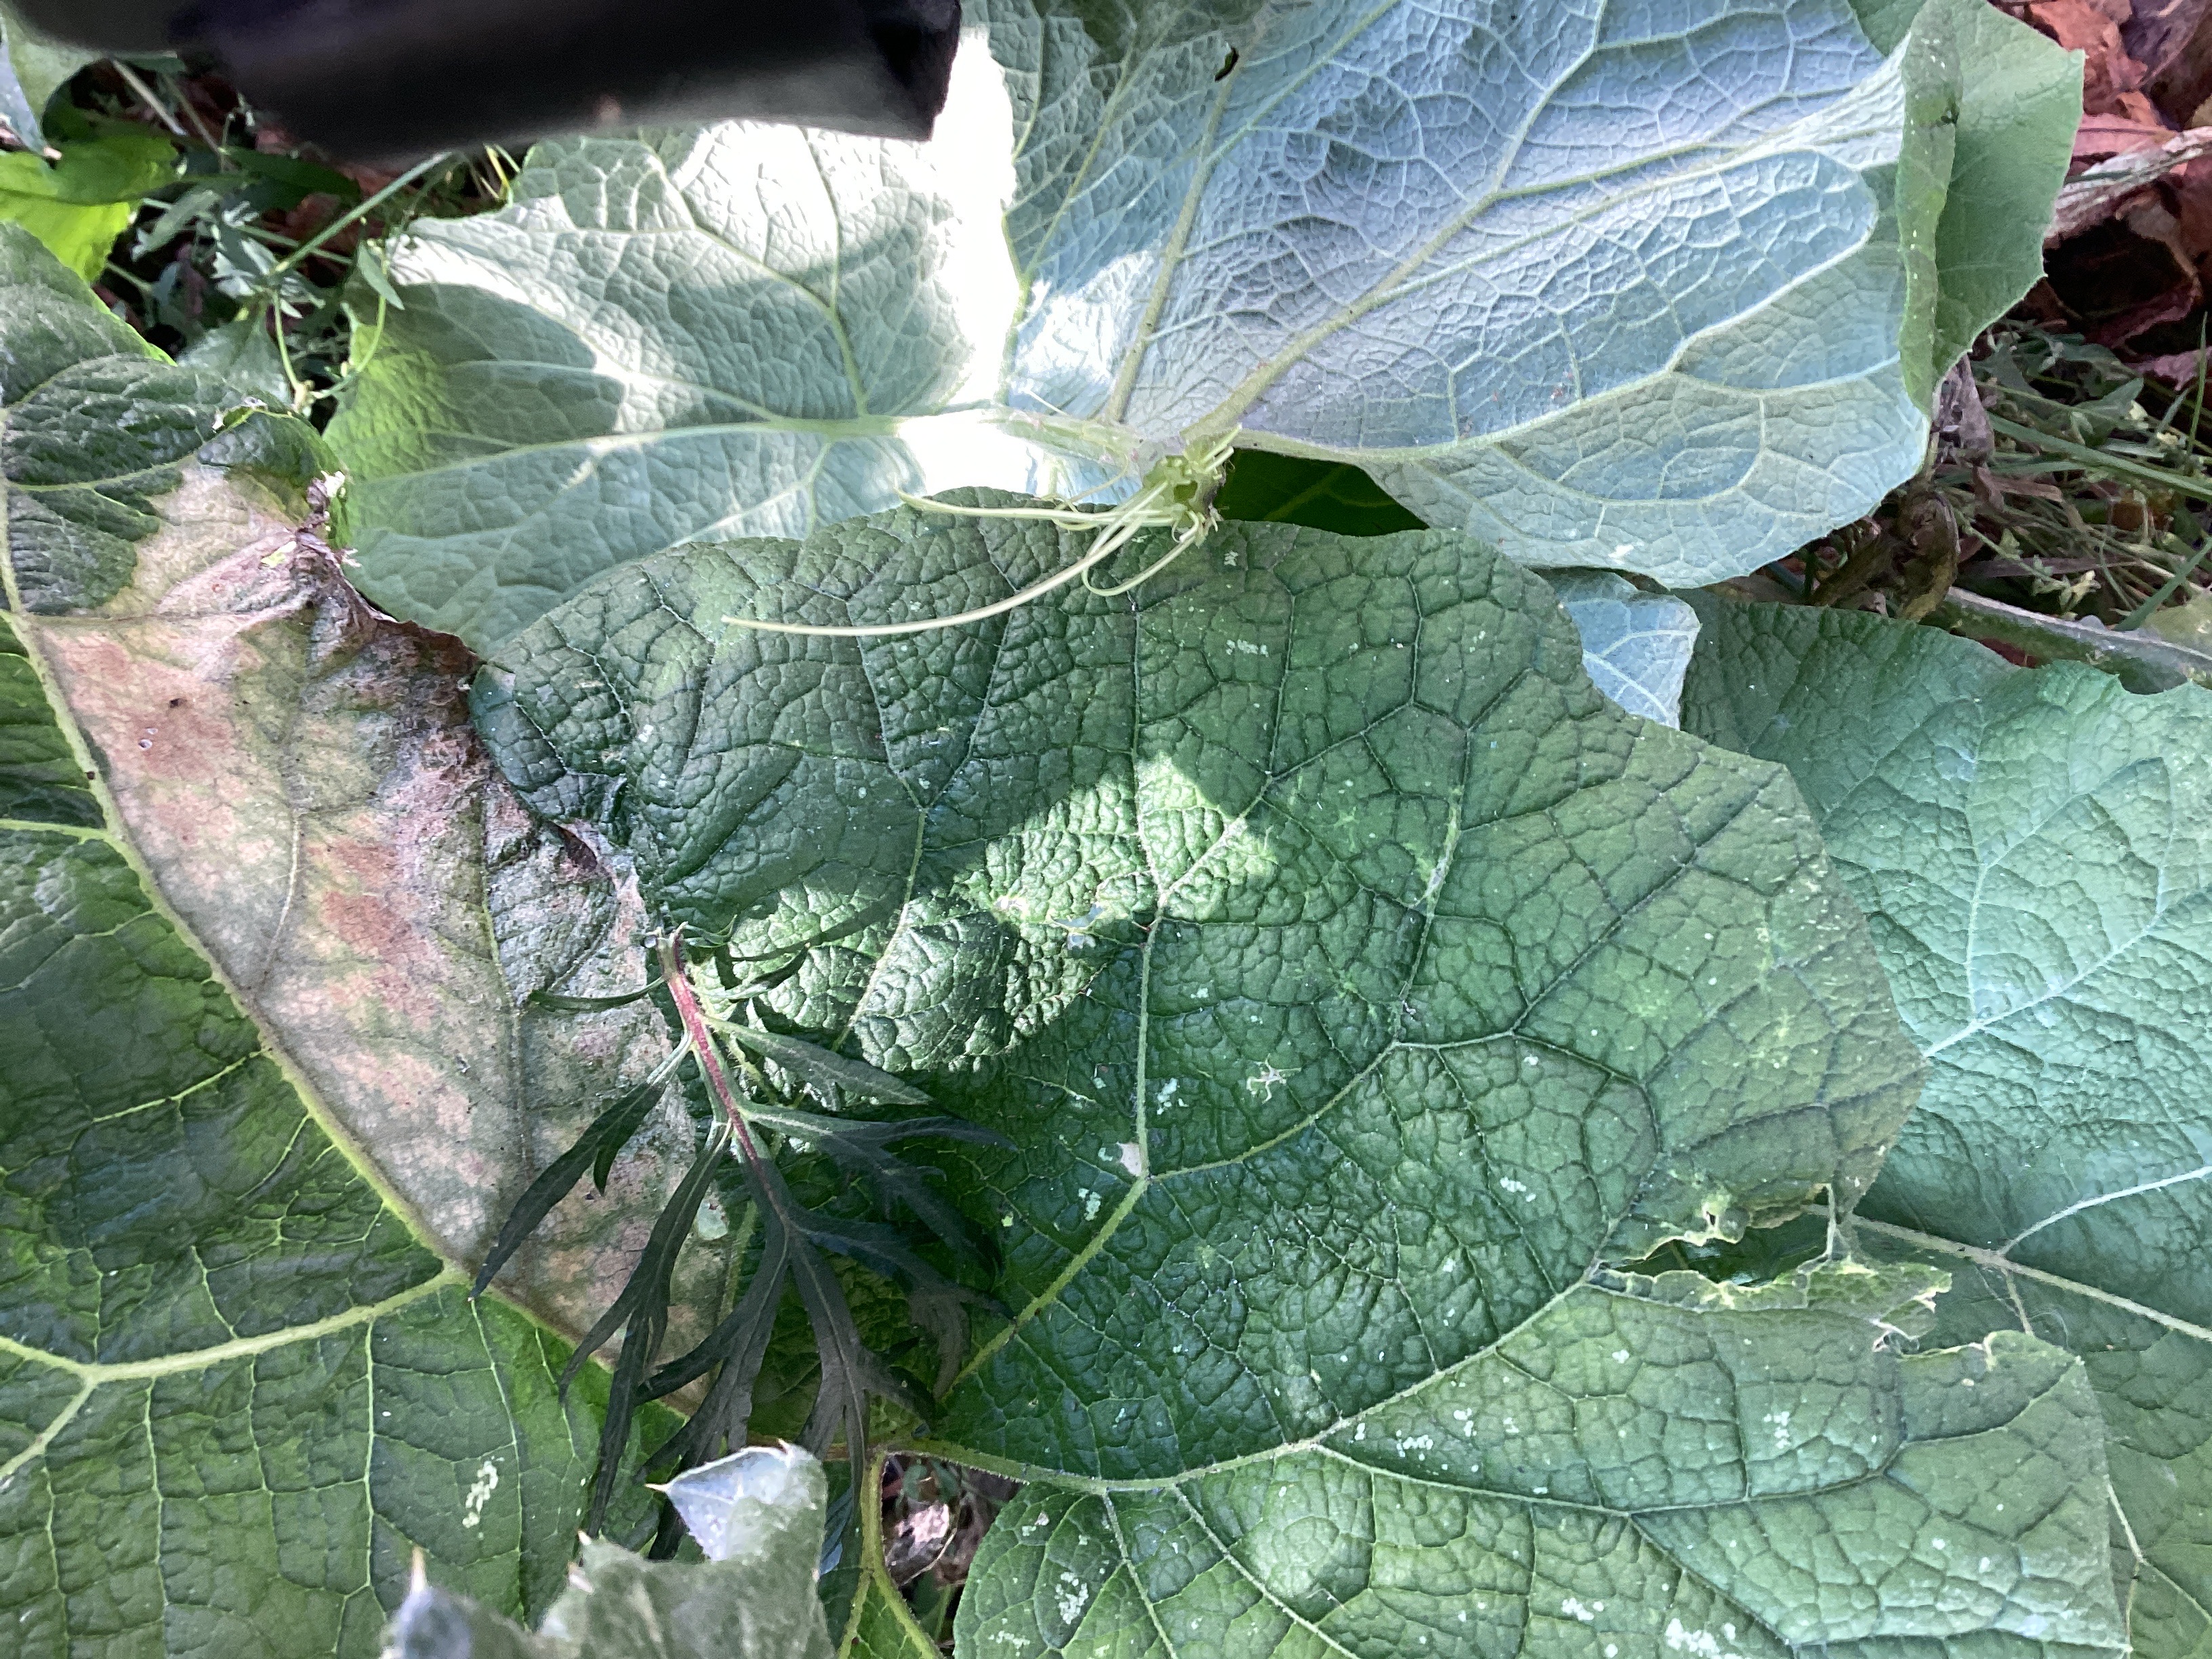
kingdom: Plantae
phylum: Tracheophyta
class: Magnoliopsida
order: Asterales
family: Asteraceae
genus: Arctium
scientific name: Arctium tomentosum
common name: ullborre
